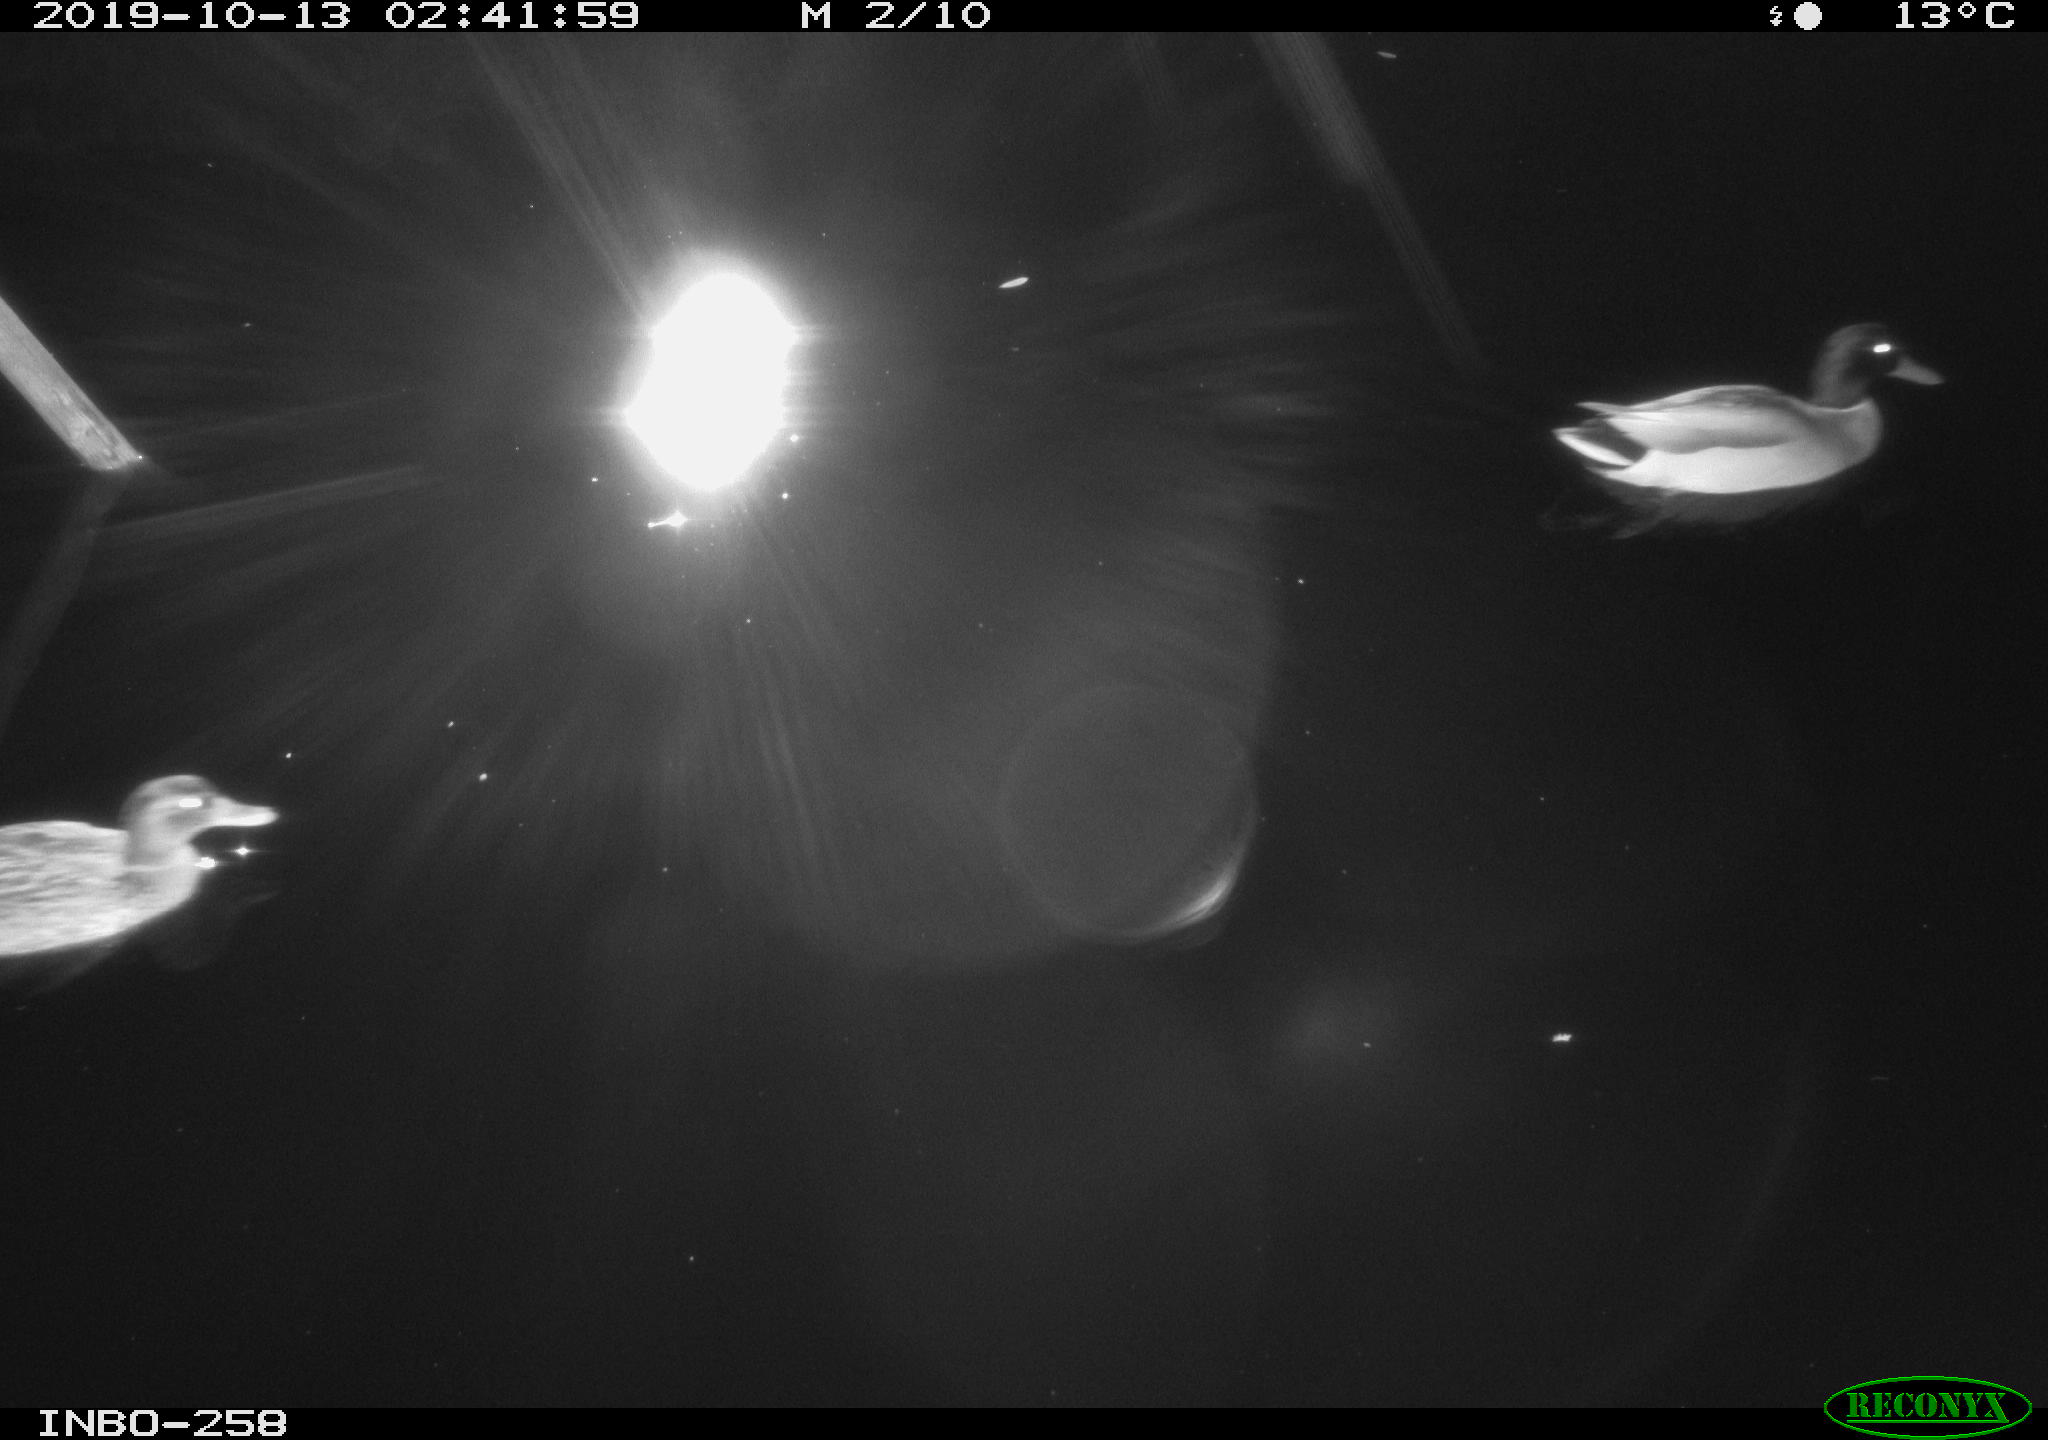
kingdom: Animalia
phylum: Chordata
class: Aves
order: Anseriformes
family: Anatidae
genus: Anas
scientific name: Anas platyrhynchos
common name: Mallard
